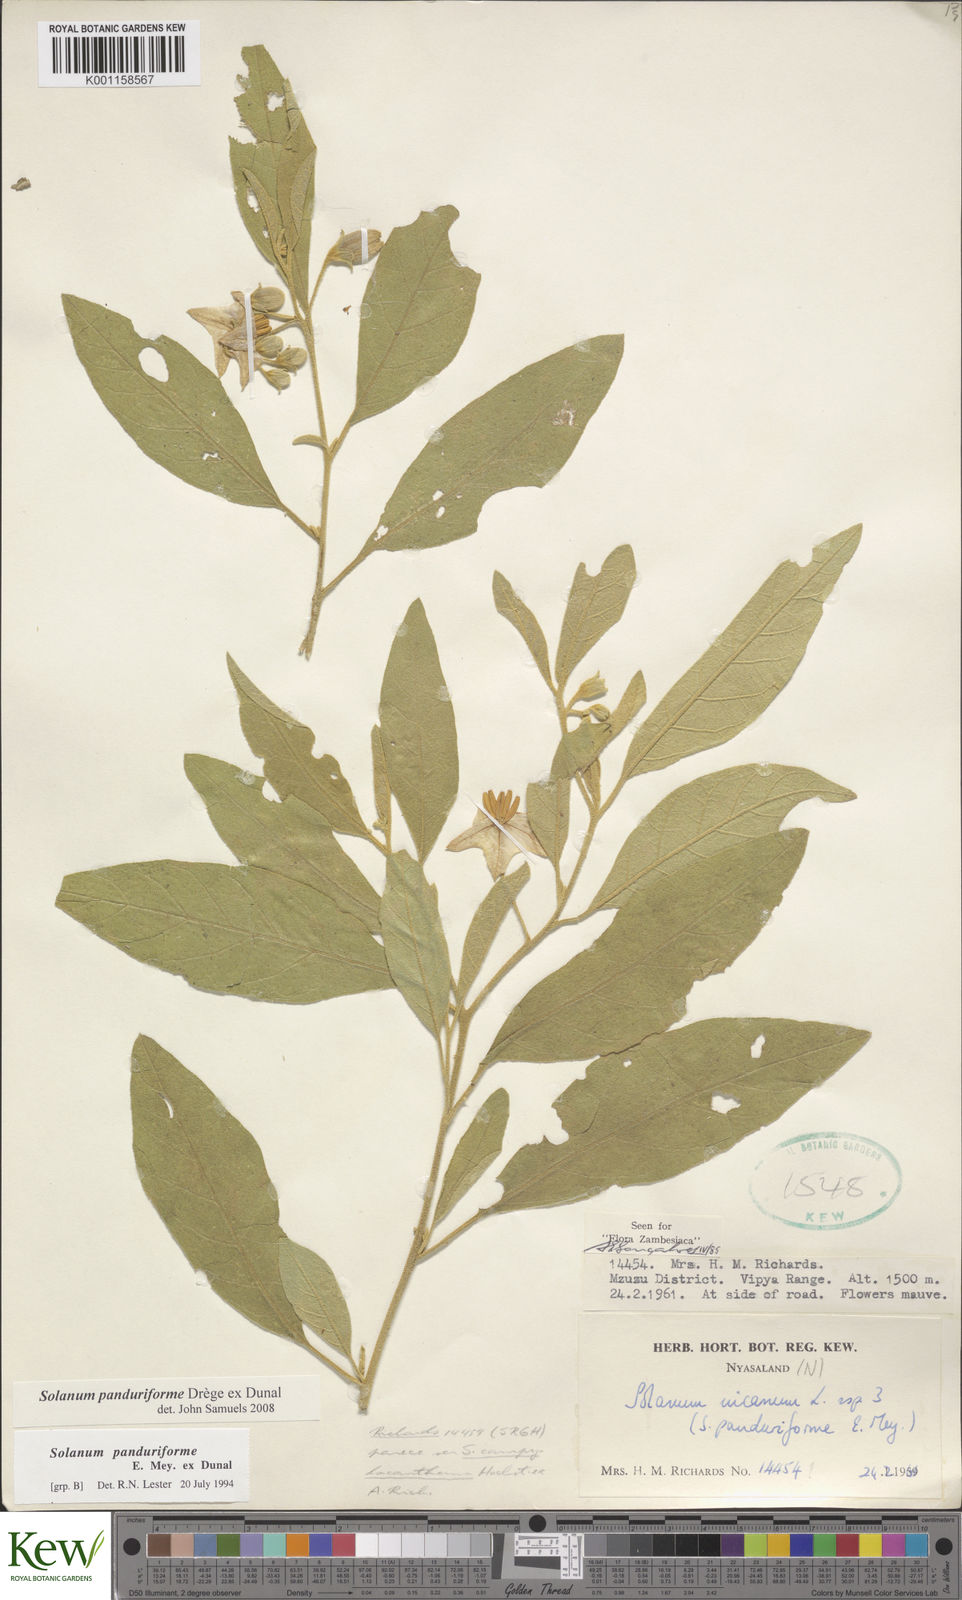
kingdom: Plantae
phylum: Tracheophyta
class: Magnoliopsida
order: Solanales
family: Solanaceae
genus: Solanum
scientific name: Solanum campylacanthum
